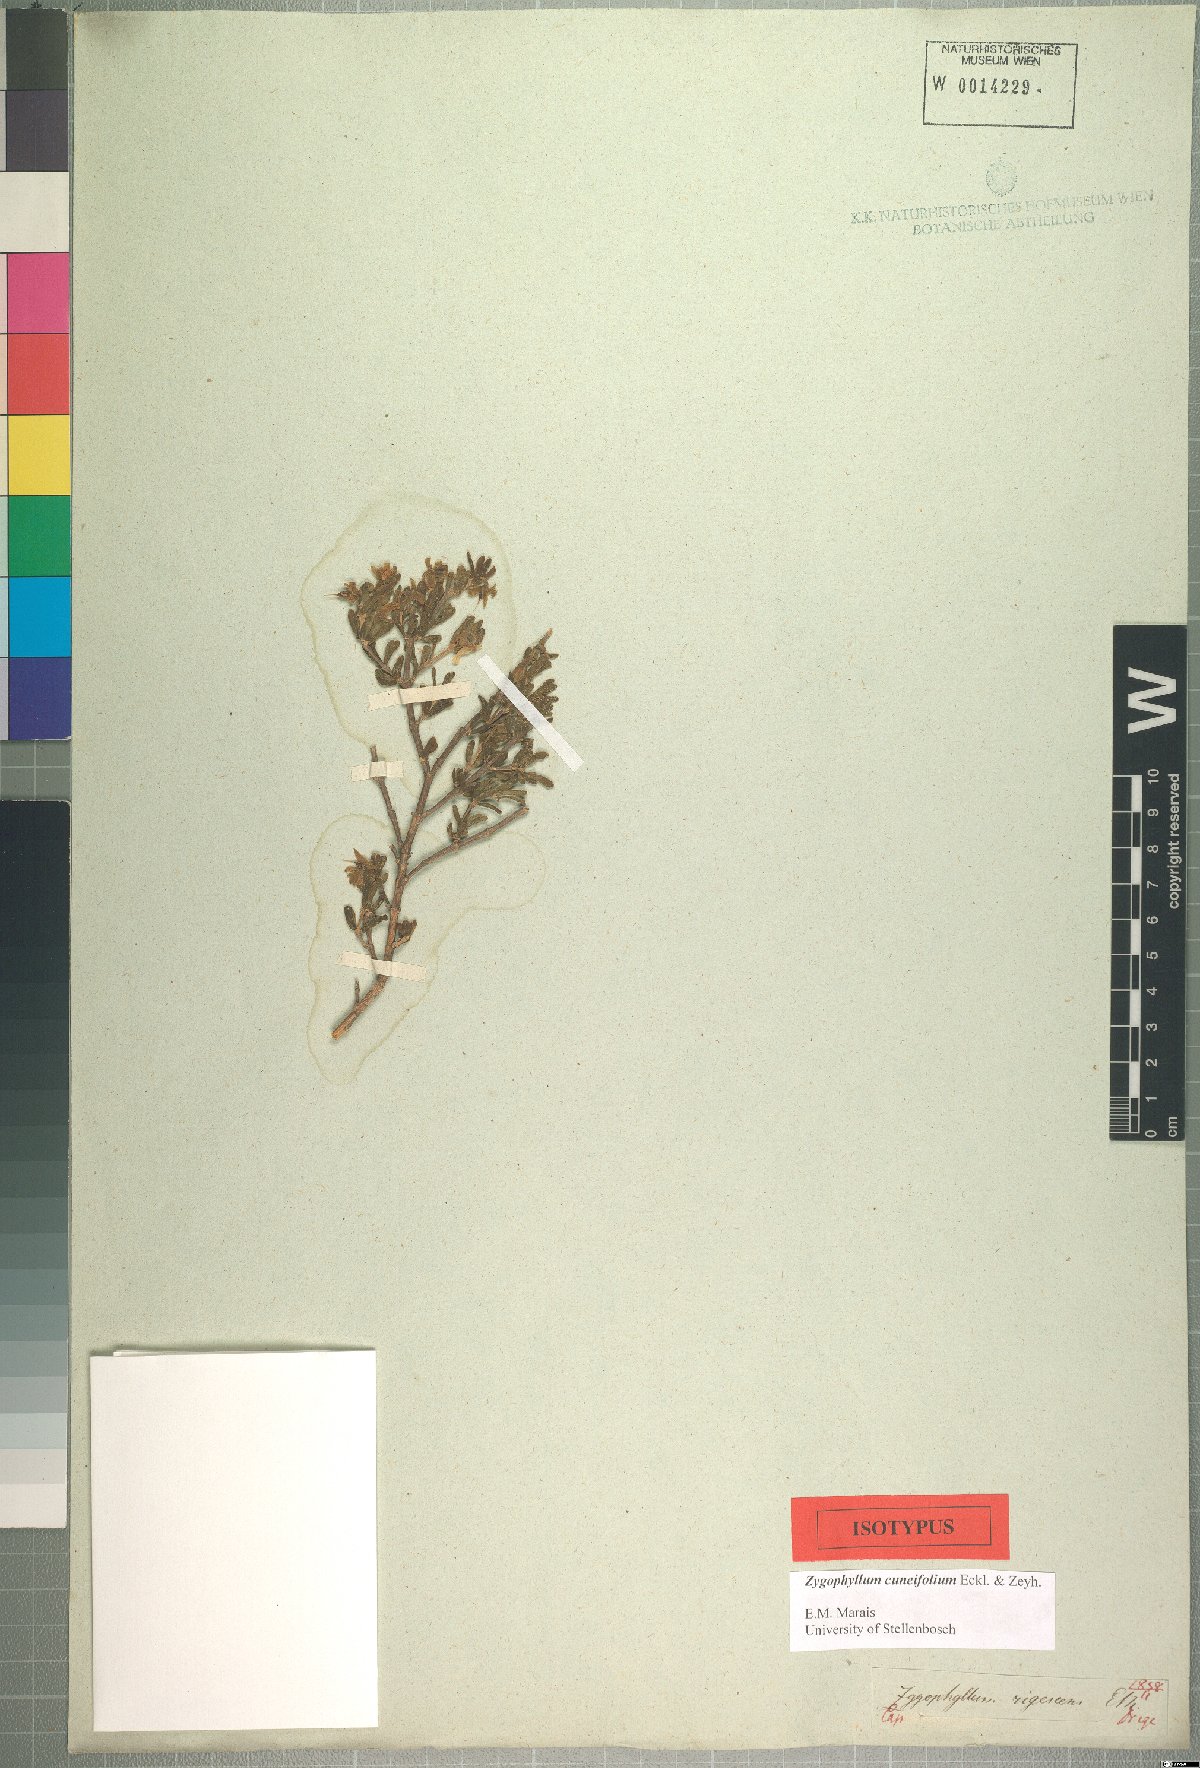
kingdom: Plantae
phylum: Tracheophyta
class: Magnoliopsida
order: Zygophyllales
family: Zygophyllaceae
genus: Roepera
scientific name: Roepera cuneifolia
